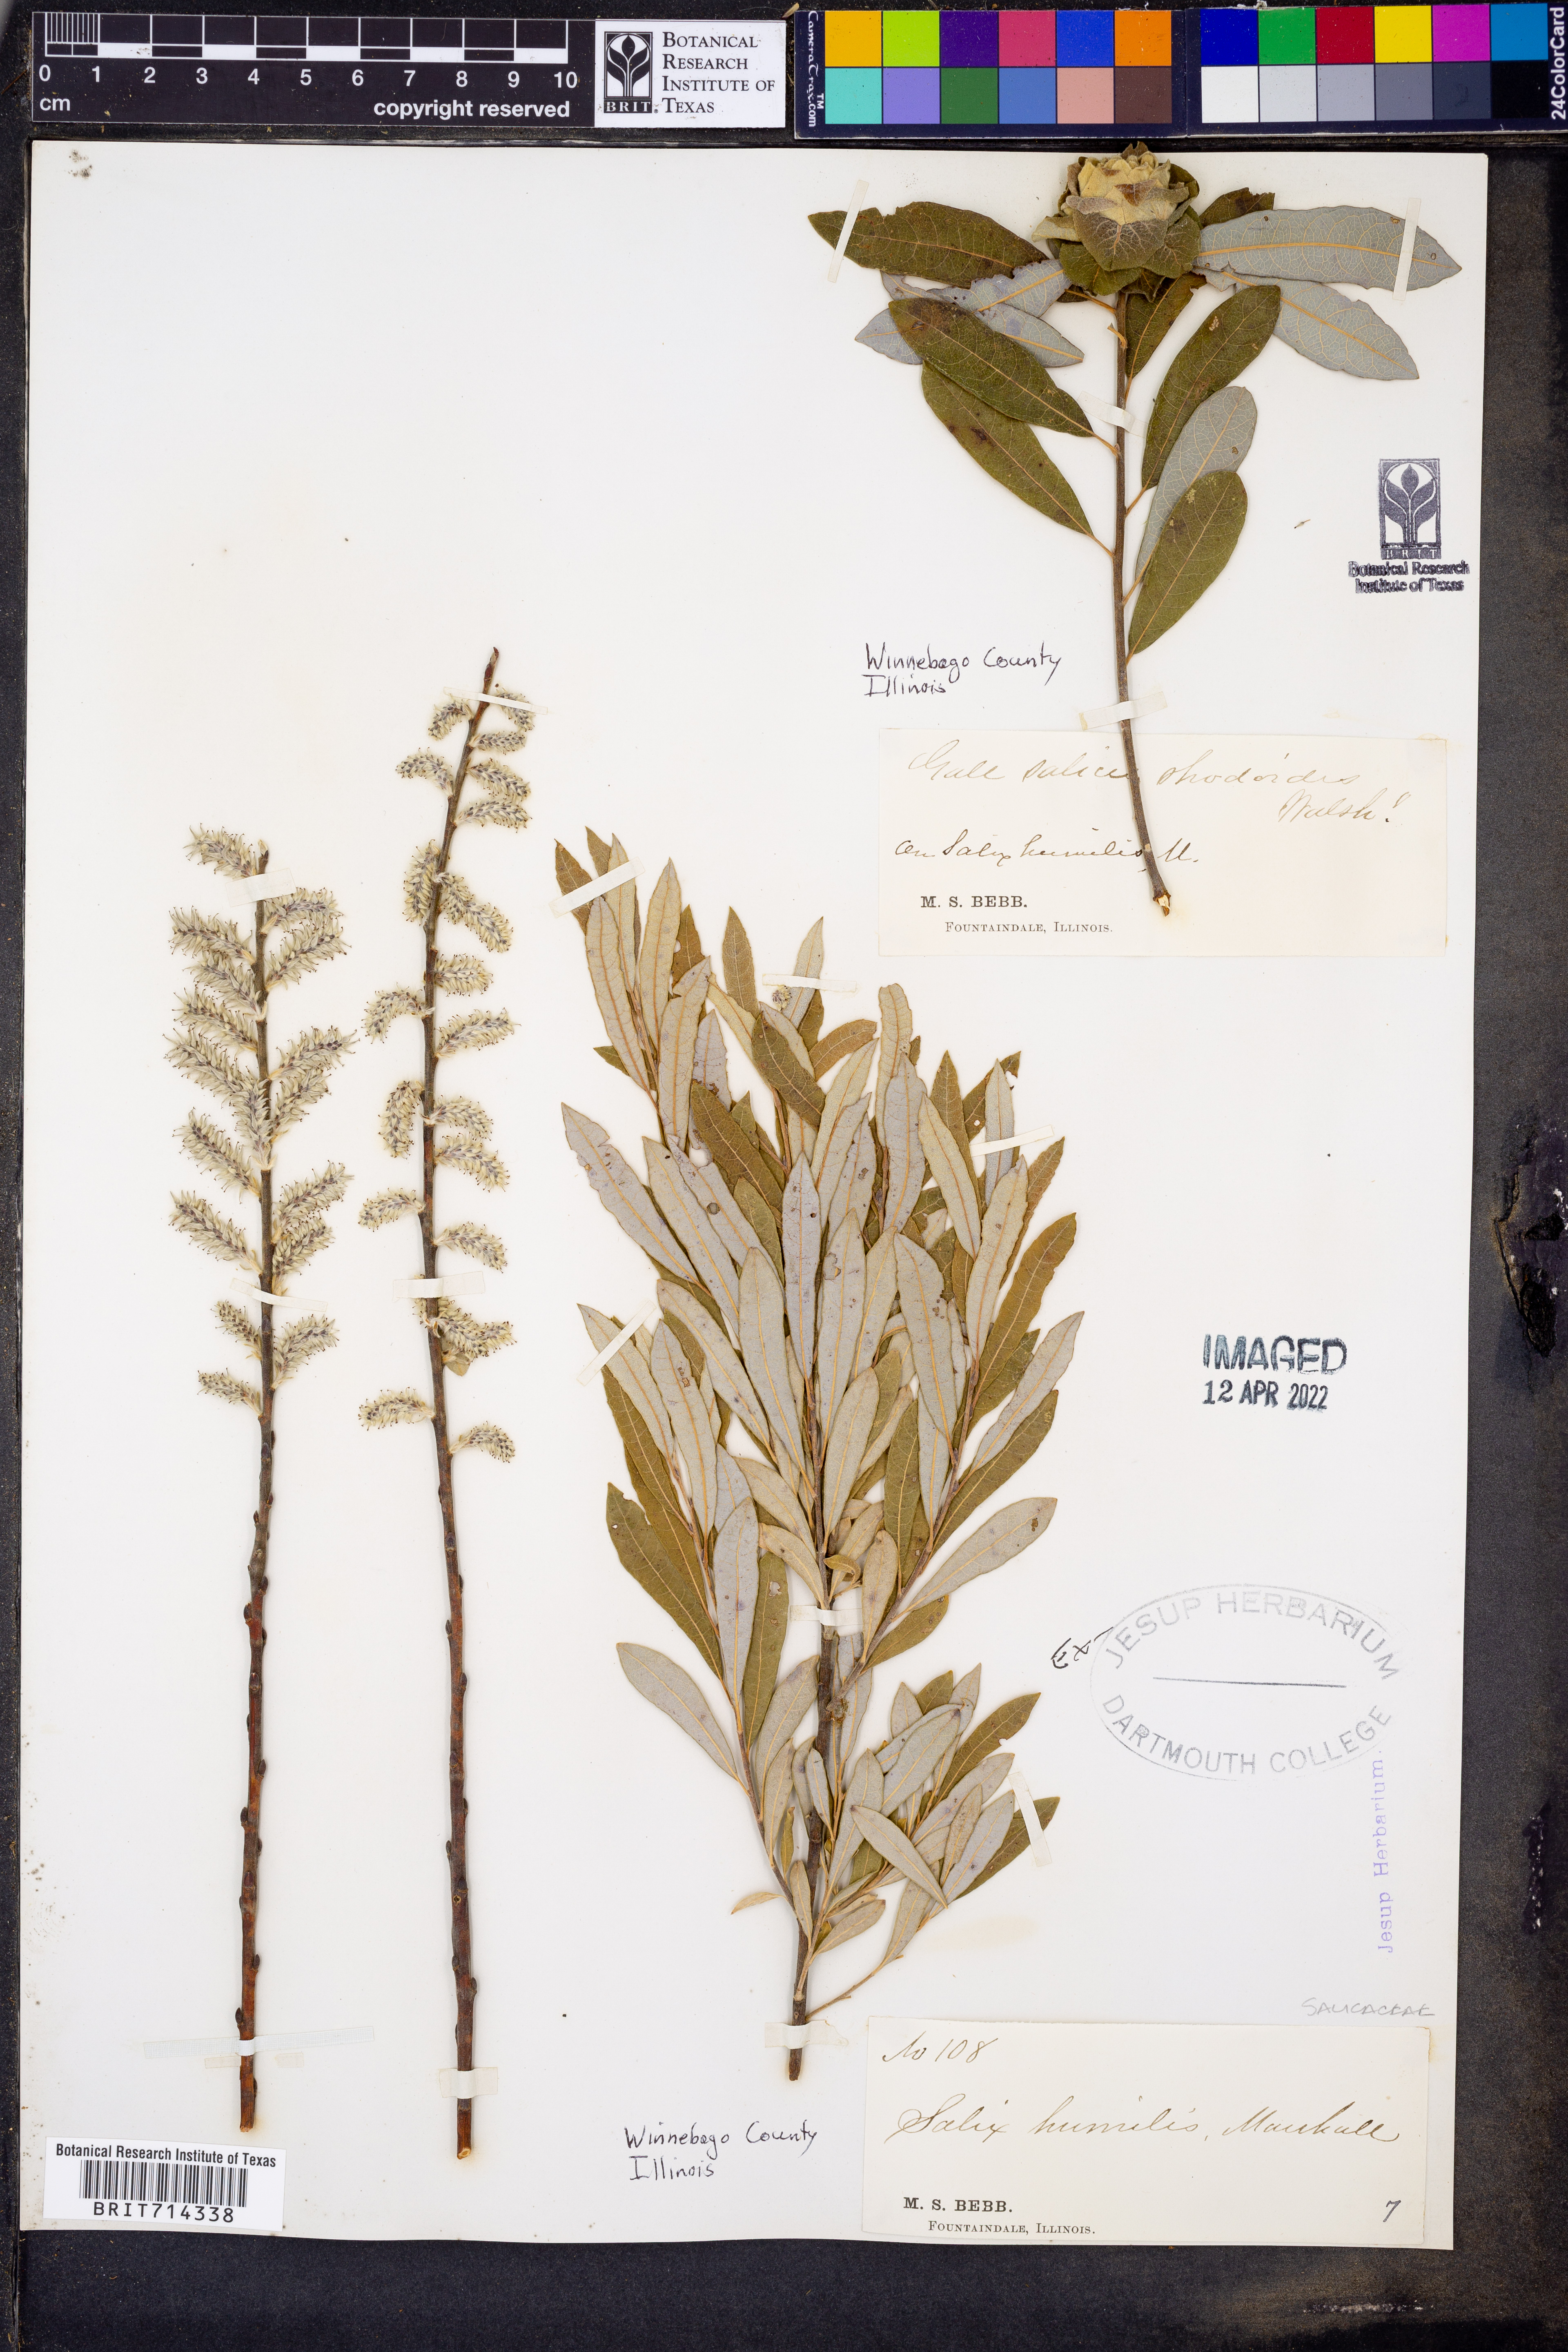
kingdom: Plantae
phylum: Tracheophyta
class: Magnoliopsida
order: Malpighiales
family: Salicaceae
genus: Salix
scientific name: Salix humilis
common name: Prairie willow
